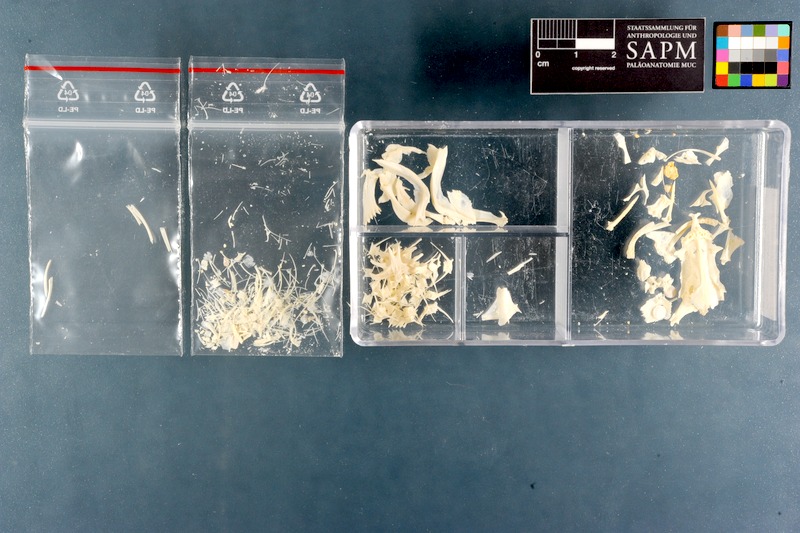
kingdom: Animalia
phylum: Chordata
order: Siluriformes
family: Plotosidae
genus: Plotosus
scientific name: Plotosus lineatus
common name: Striped eel catfish
